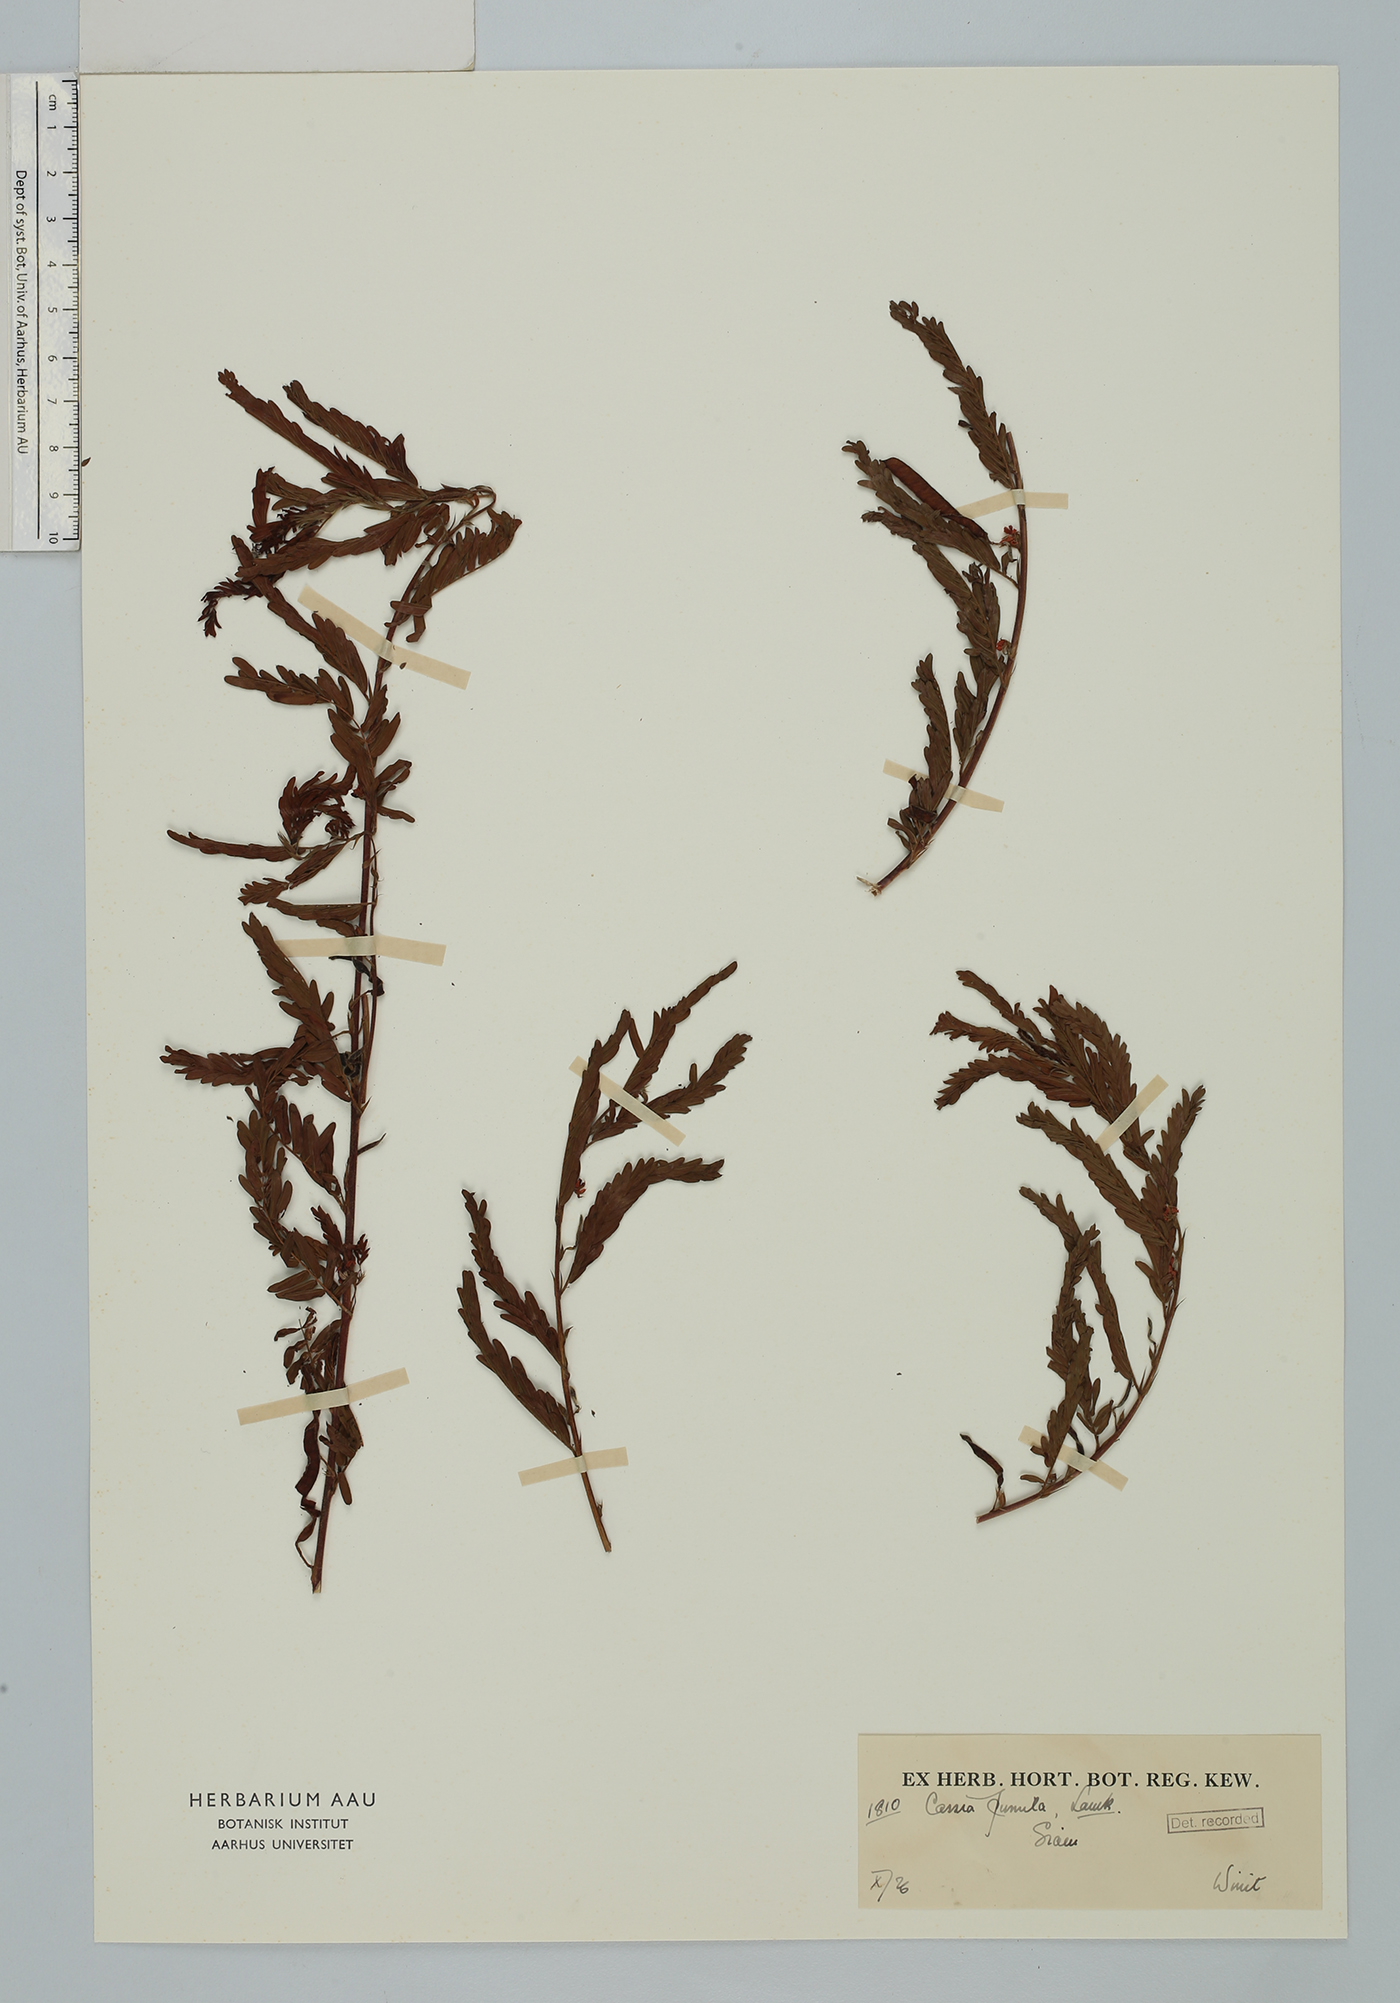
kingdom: Plantae
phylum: Tracheophyta
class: Magnoliopsida
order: Fabales
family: Fabaceae
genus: Chamaecrista
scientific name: Chamaecrista pumila
